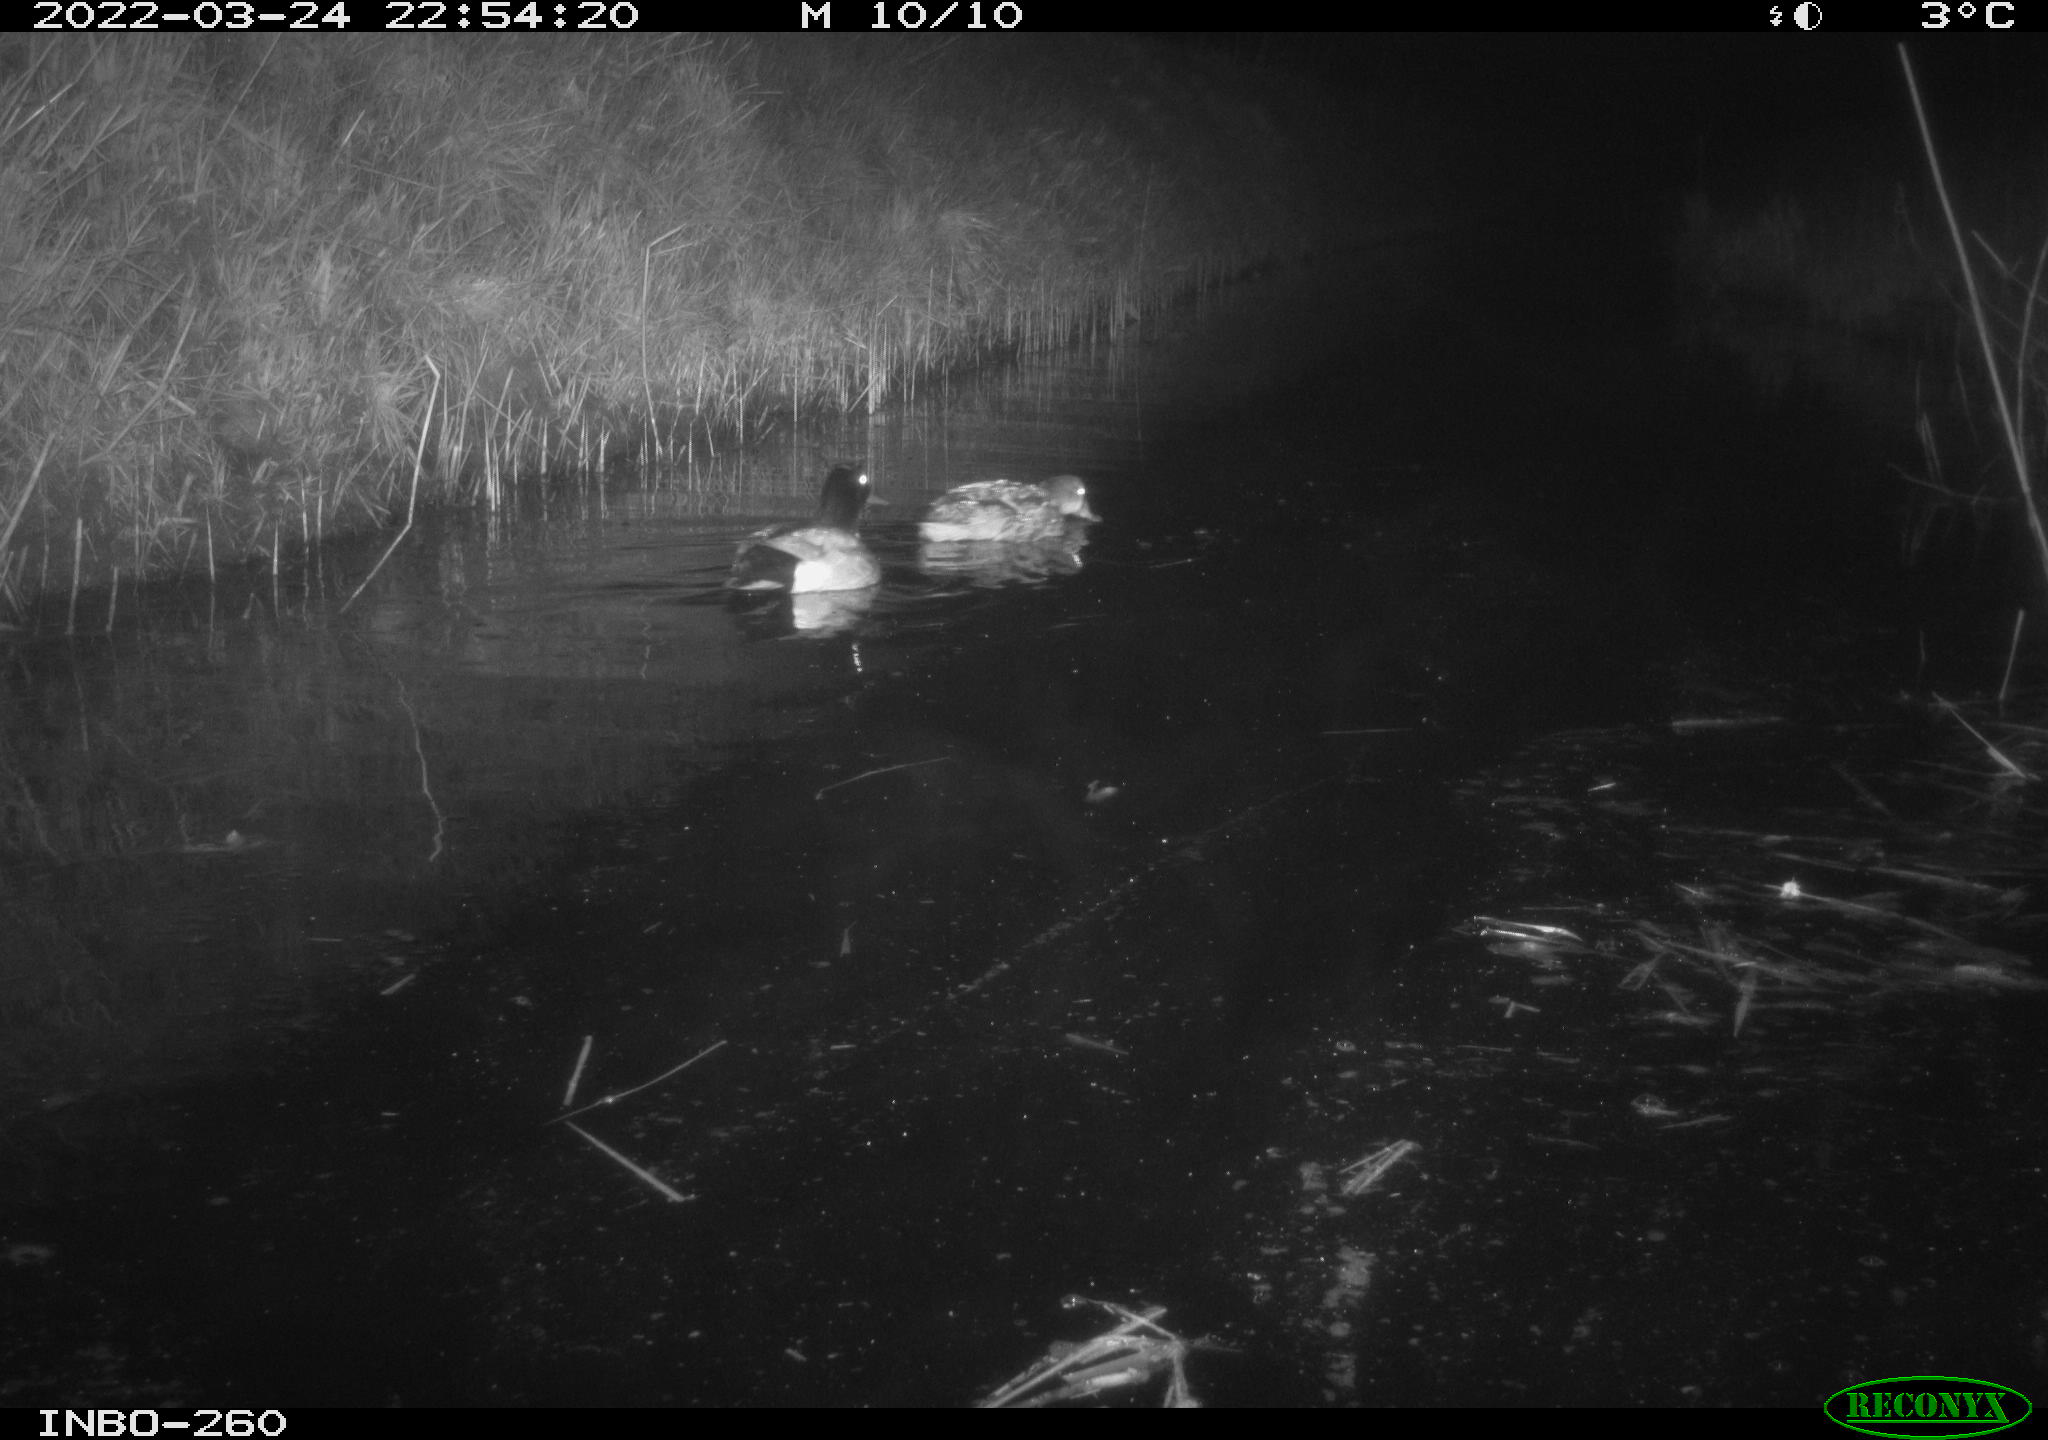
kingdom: Animalia
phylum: Chordata
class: Aves
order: Anseriformes
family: Anatidae
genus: Anas
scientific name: Anas platyrhynchos
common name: Mallard
